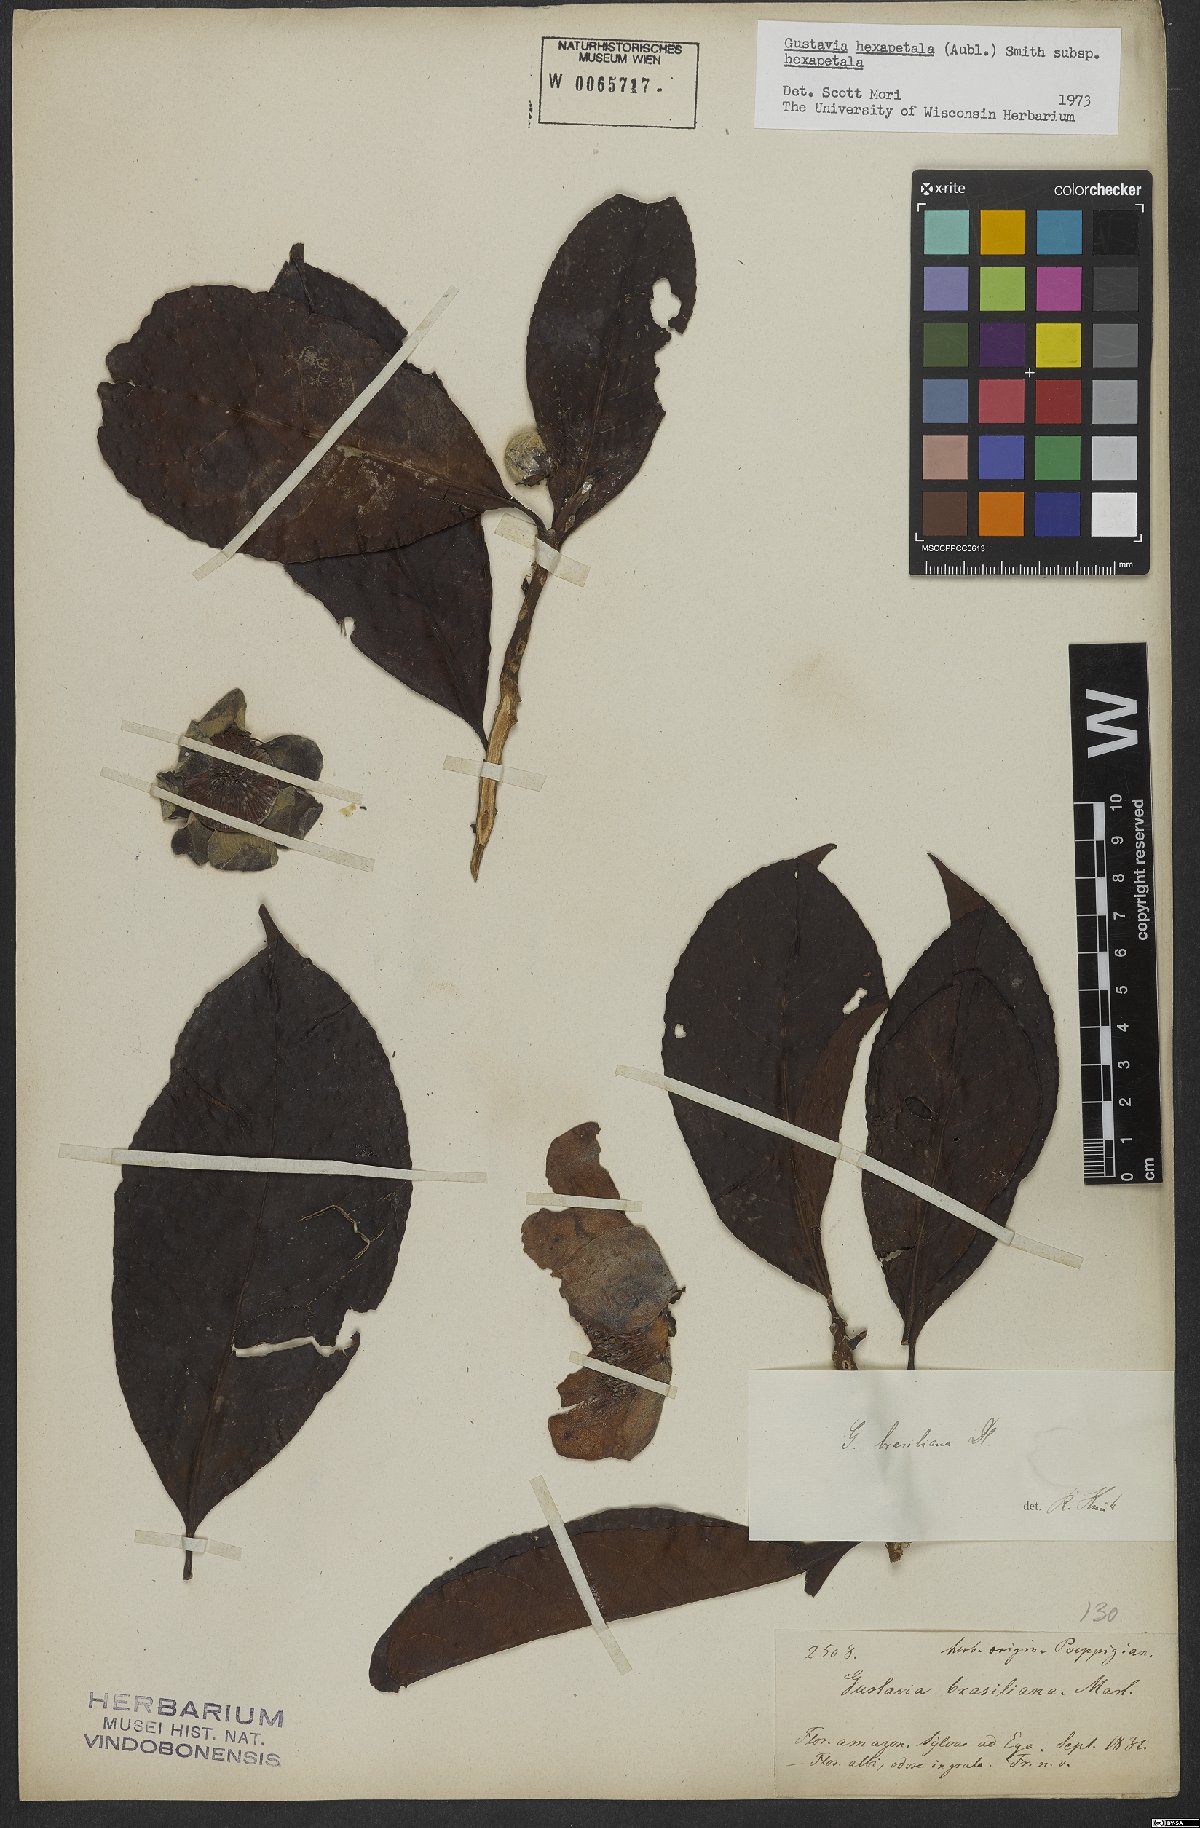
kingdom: Plantae
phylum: Tracheophyta
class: Magnoliopsida
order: Ericales
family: Lecythidaceae
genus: Gustavia
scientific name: Gustavia hexapetala
